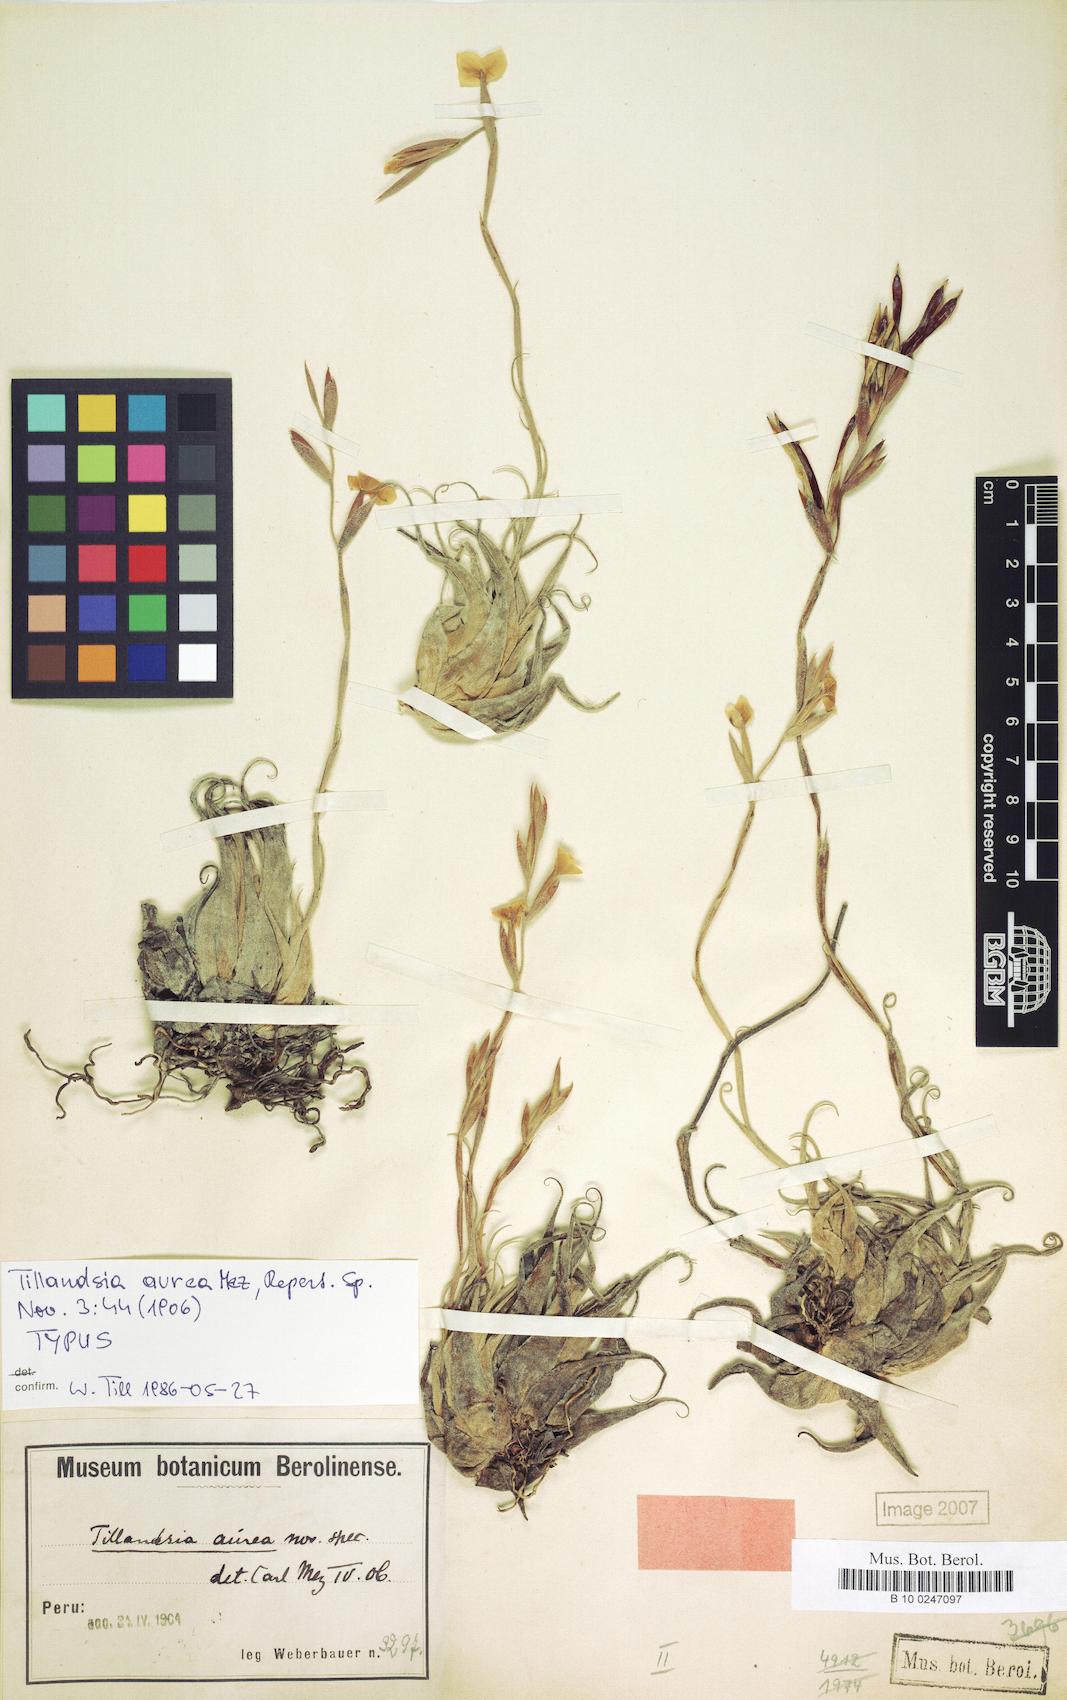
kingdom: Plantae
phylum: Tracheophyta
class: Liliopsida
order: Poales
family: Bromeliaceae
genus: Tillandsia
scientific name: Tillandsia aurea
